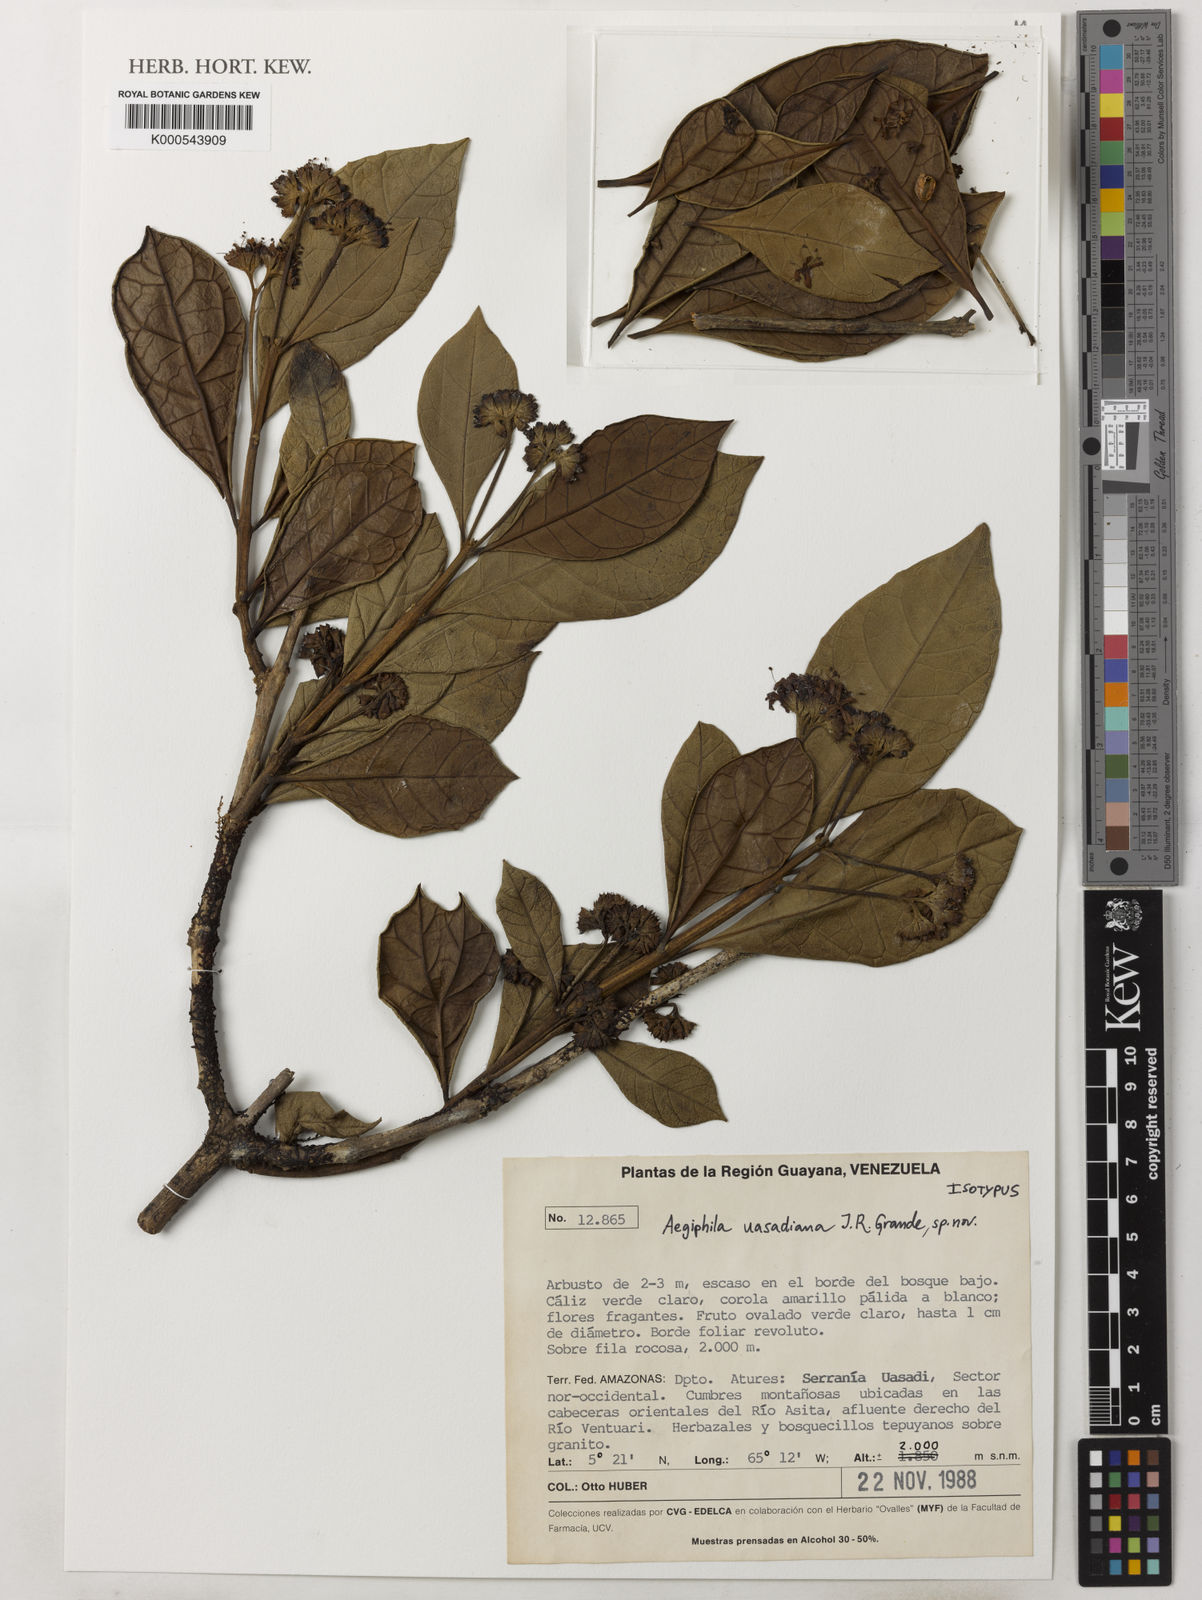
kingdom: Plantae
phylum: Tracheophyta
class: Magnoliopsida
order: Lamiales
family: Lamiaceae
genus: Aegiphila
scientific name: Aegiphila uasadiana
